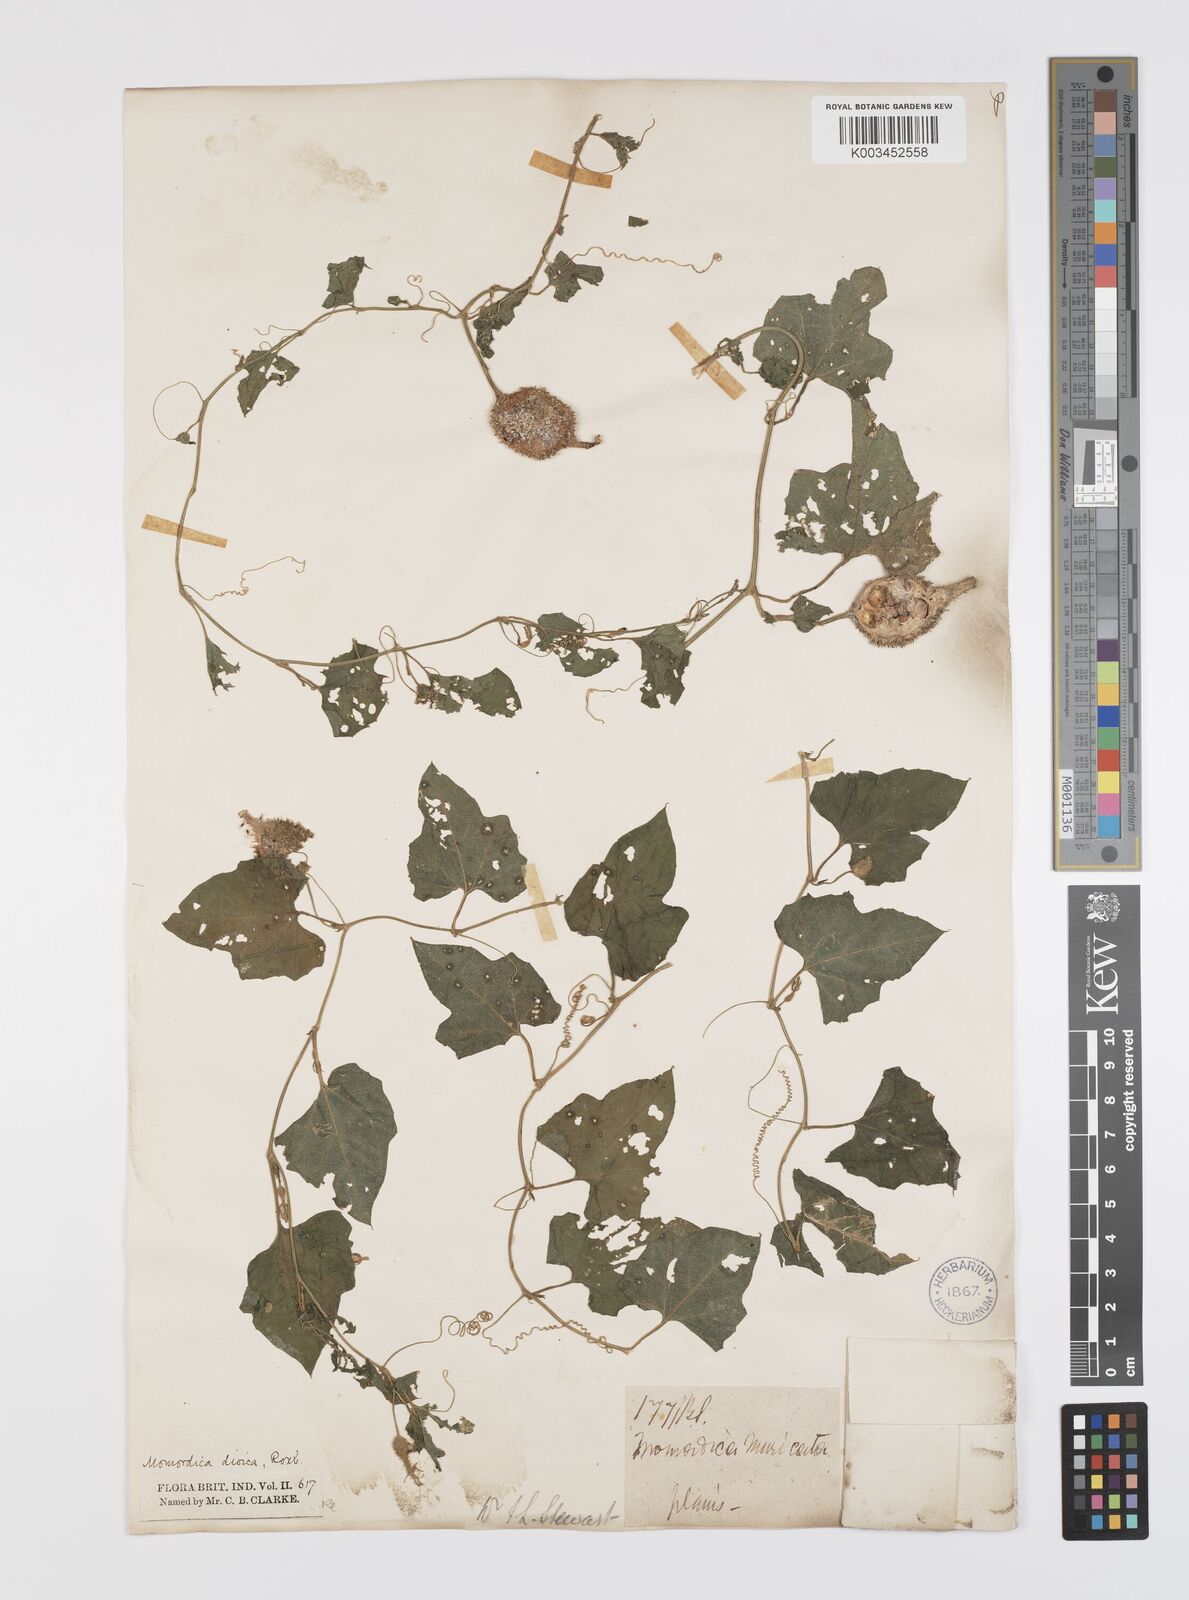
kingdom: Plantae
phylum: Tracheophyta
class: Magnoliopsida
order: Cucurbitales
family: Cucurbitaceae
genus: Momordica
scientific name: Momordica dioica
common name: Spine gourd
